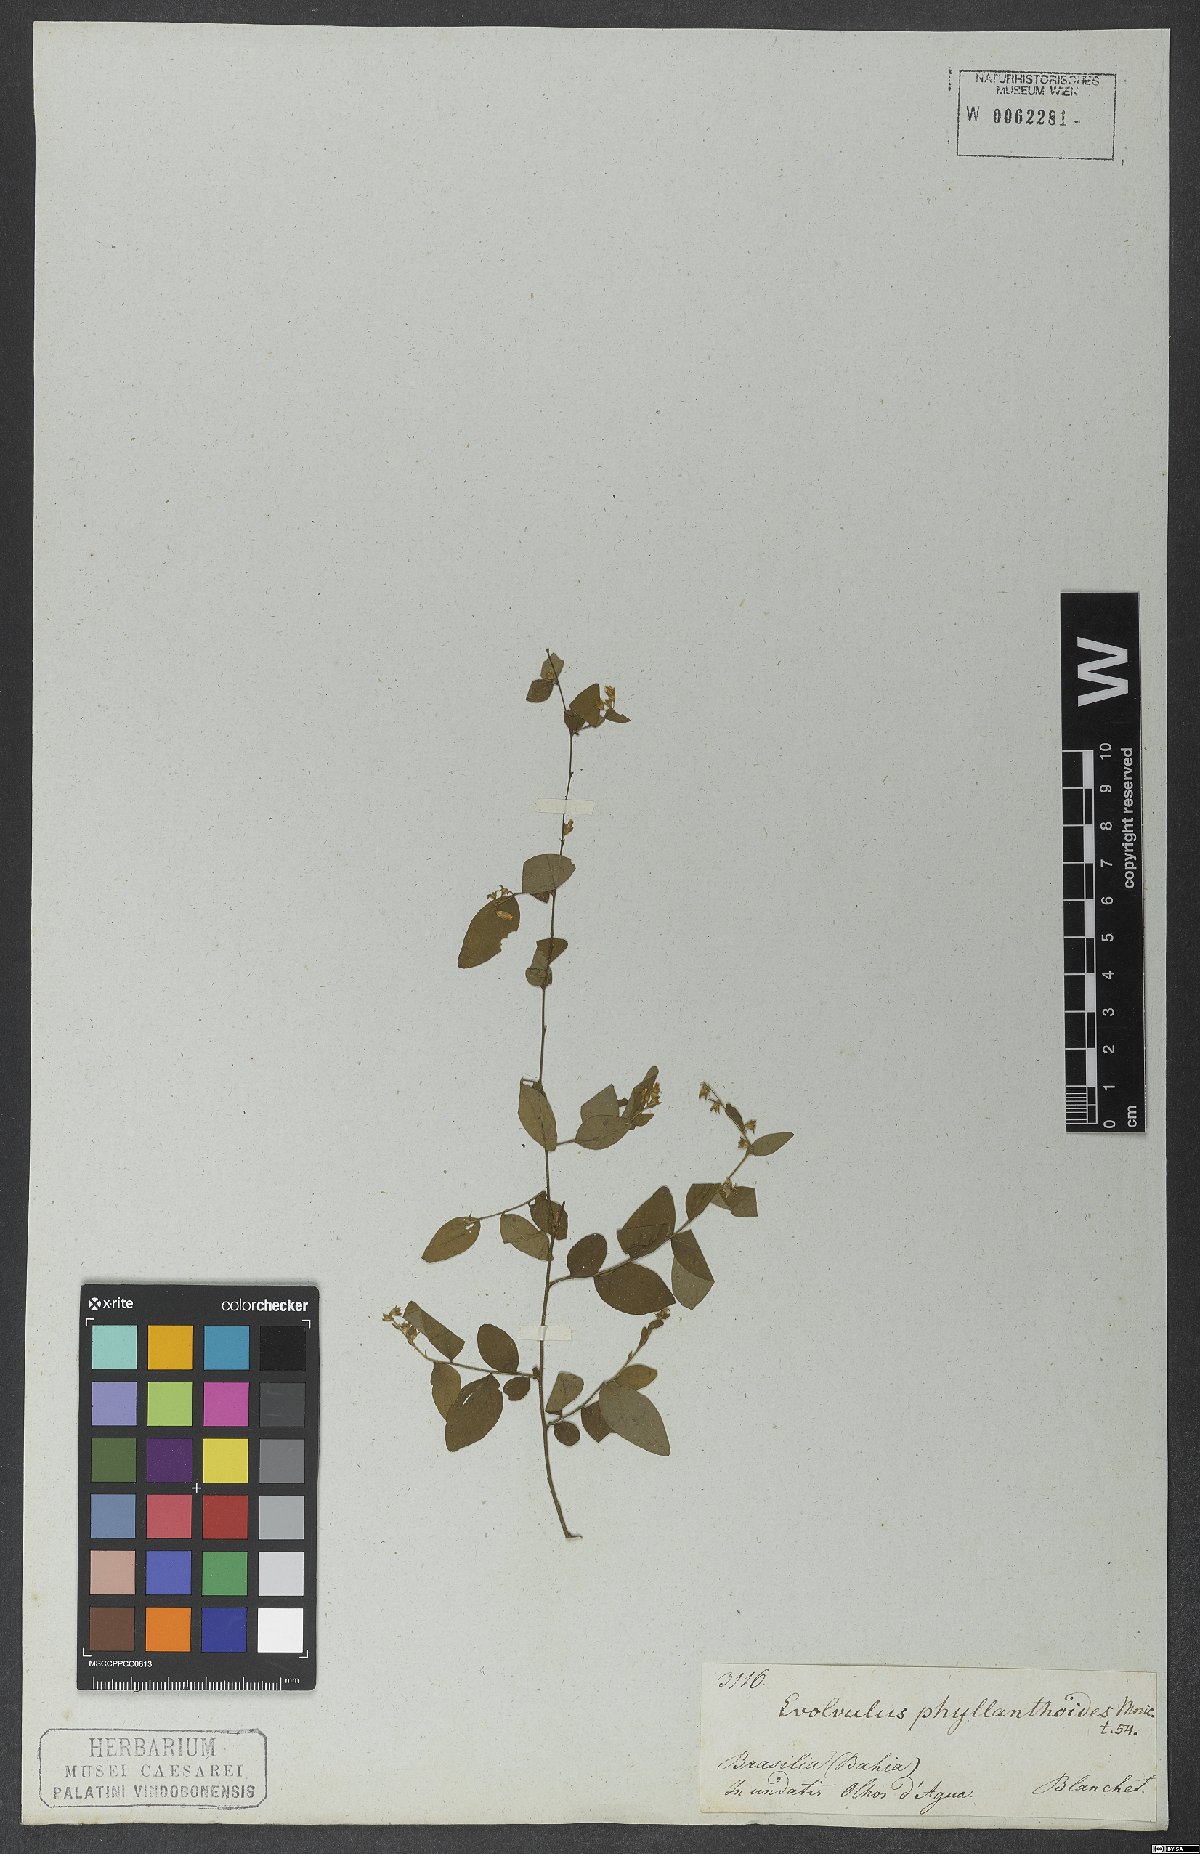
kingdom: Plantae
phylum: Tracheophyta
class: Magnoliopsida
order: Solanales
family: Convolvulaceae
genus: Evolvulus
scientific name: Evolvulus phyllanthoides
